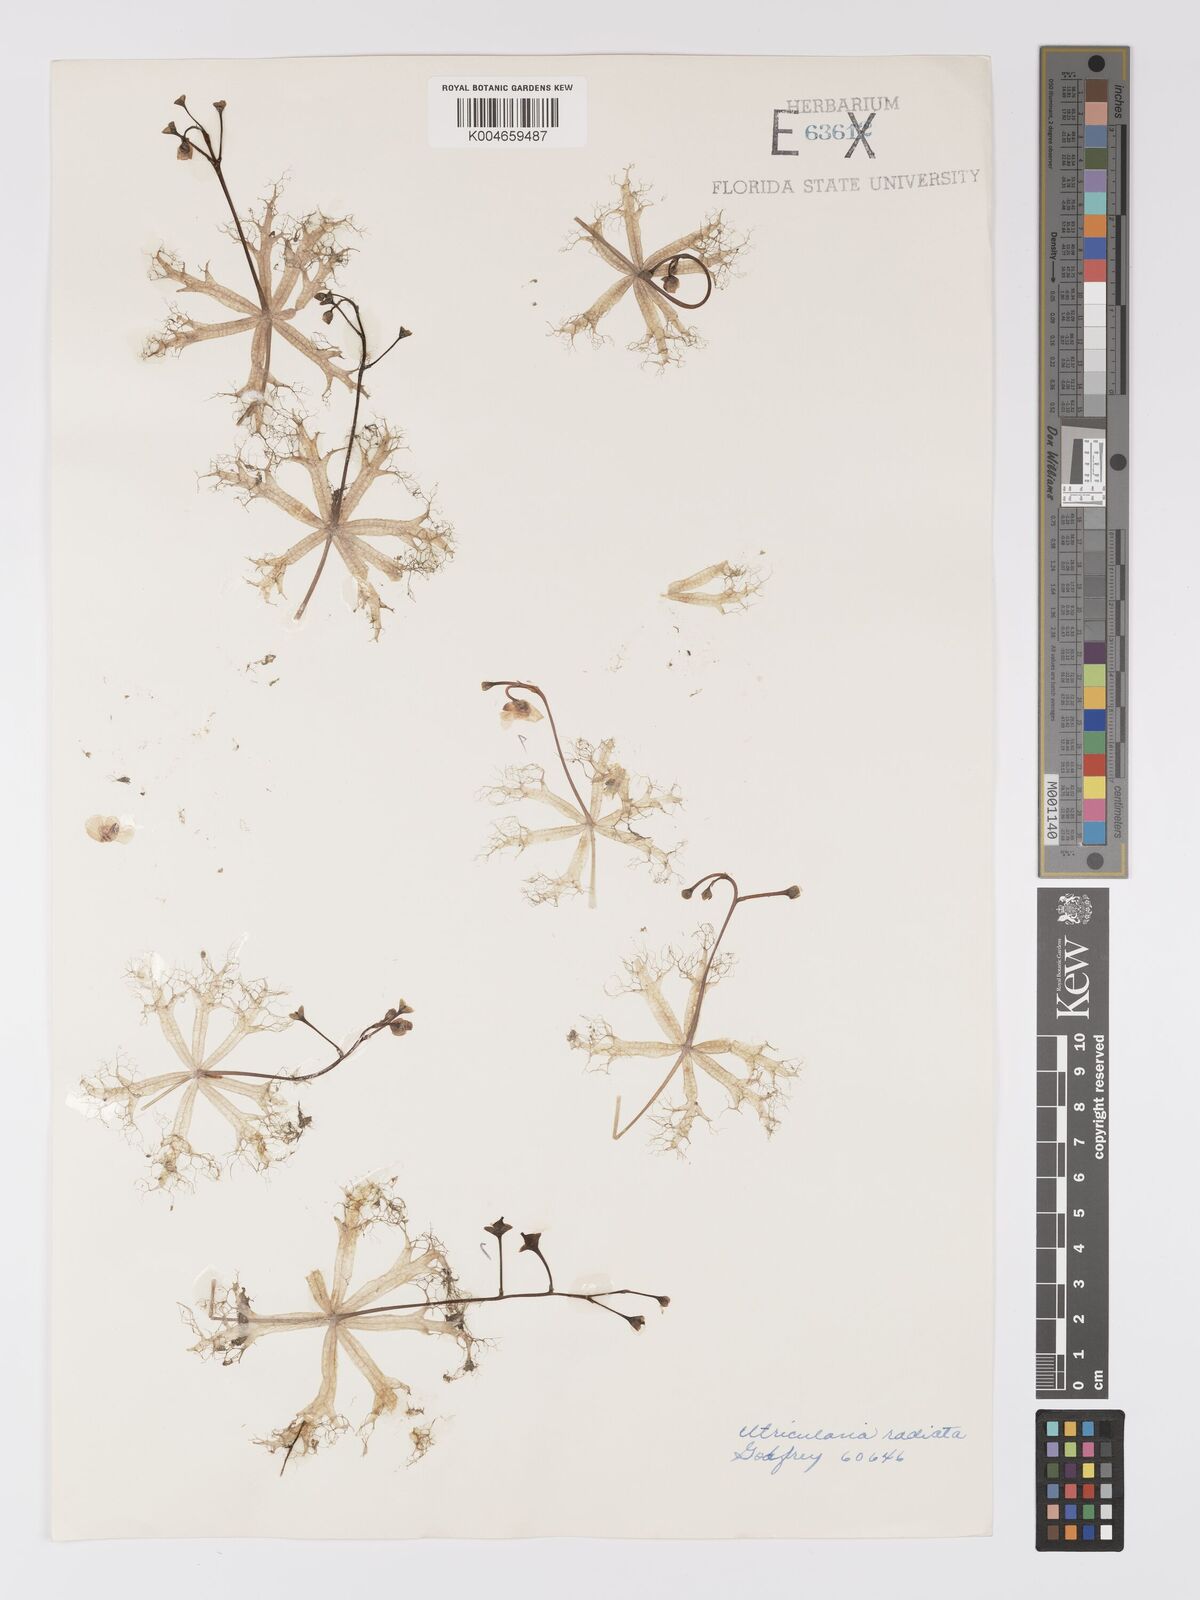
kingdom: Plantae
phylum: Tracheophyta
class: Magnoliopsida
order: Lamiales
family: Lentibulariaceae
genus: Utricularia
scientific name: Utricularia radiata
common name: Floating bladderwort
